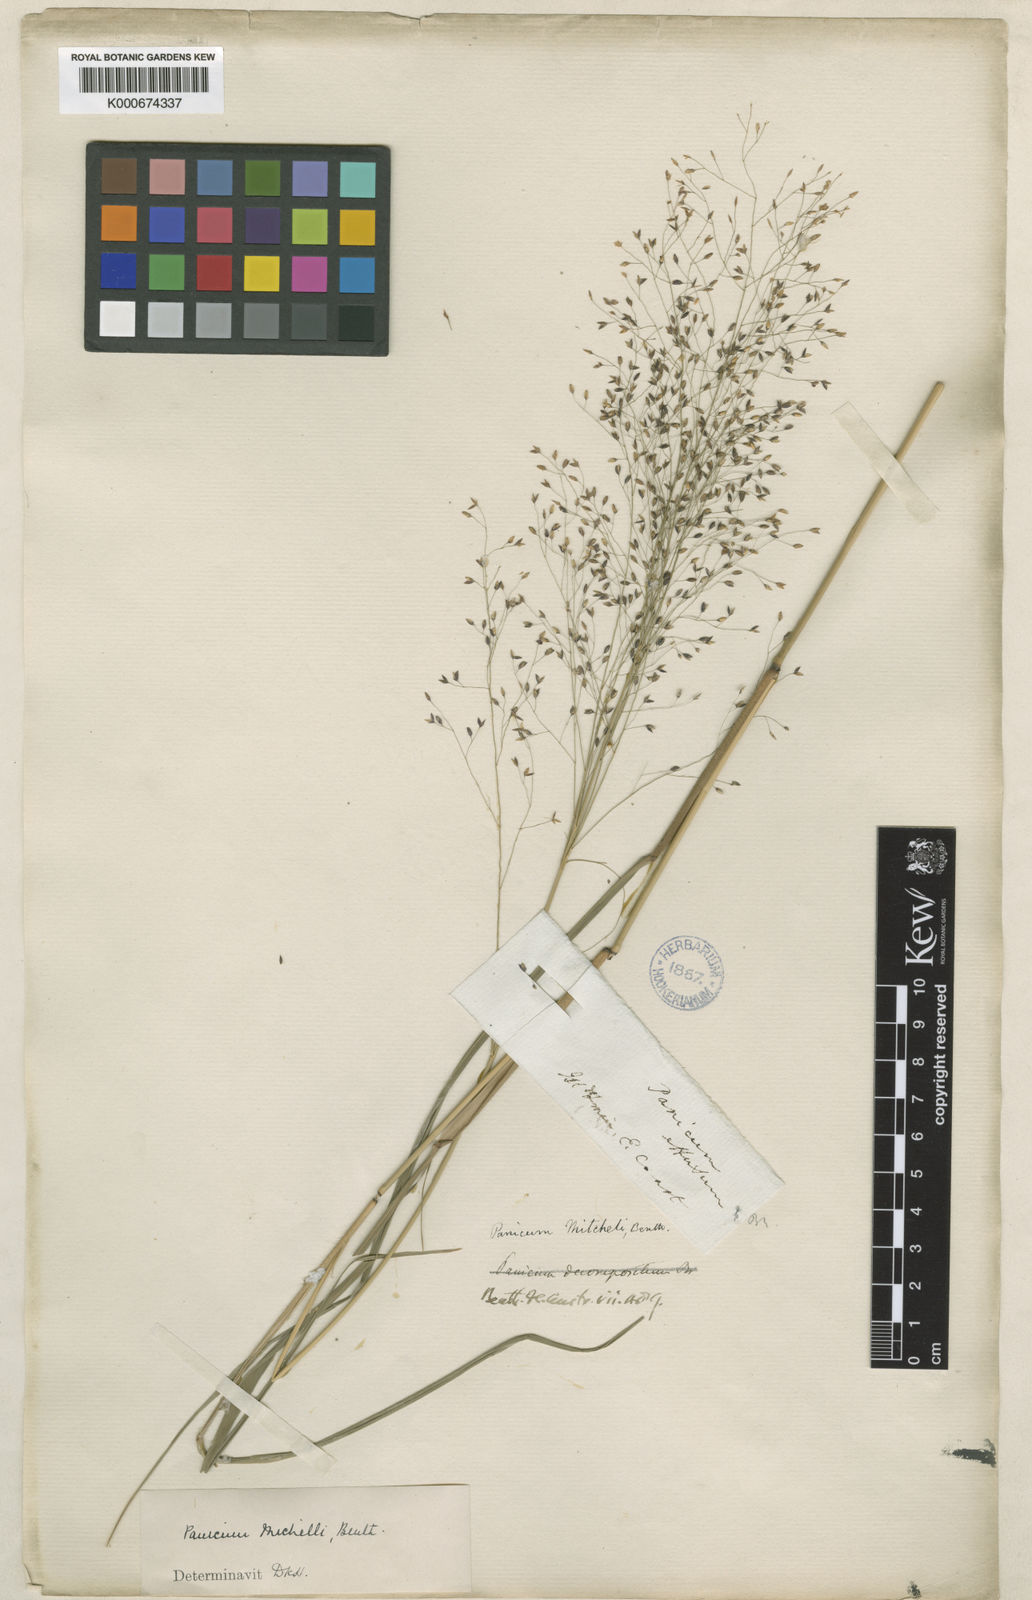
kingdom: Plantae
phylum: Tracheophyta
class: Liliopsida
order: Poales
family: Poaceae
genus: Panicum
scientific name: Panicum mitchellii
